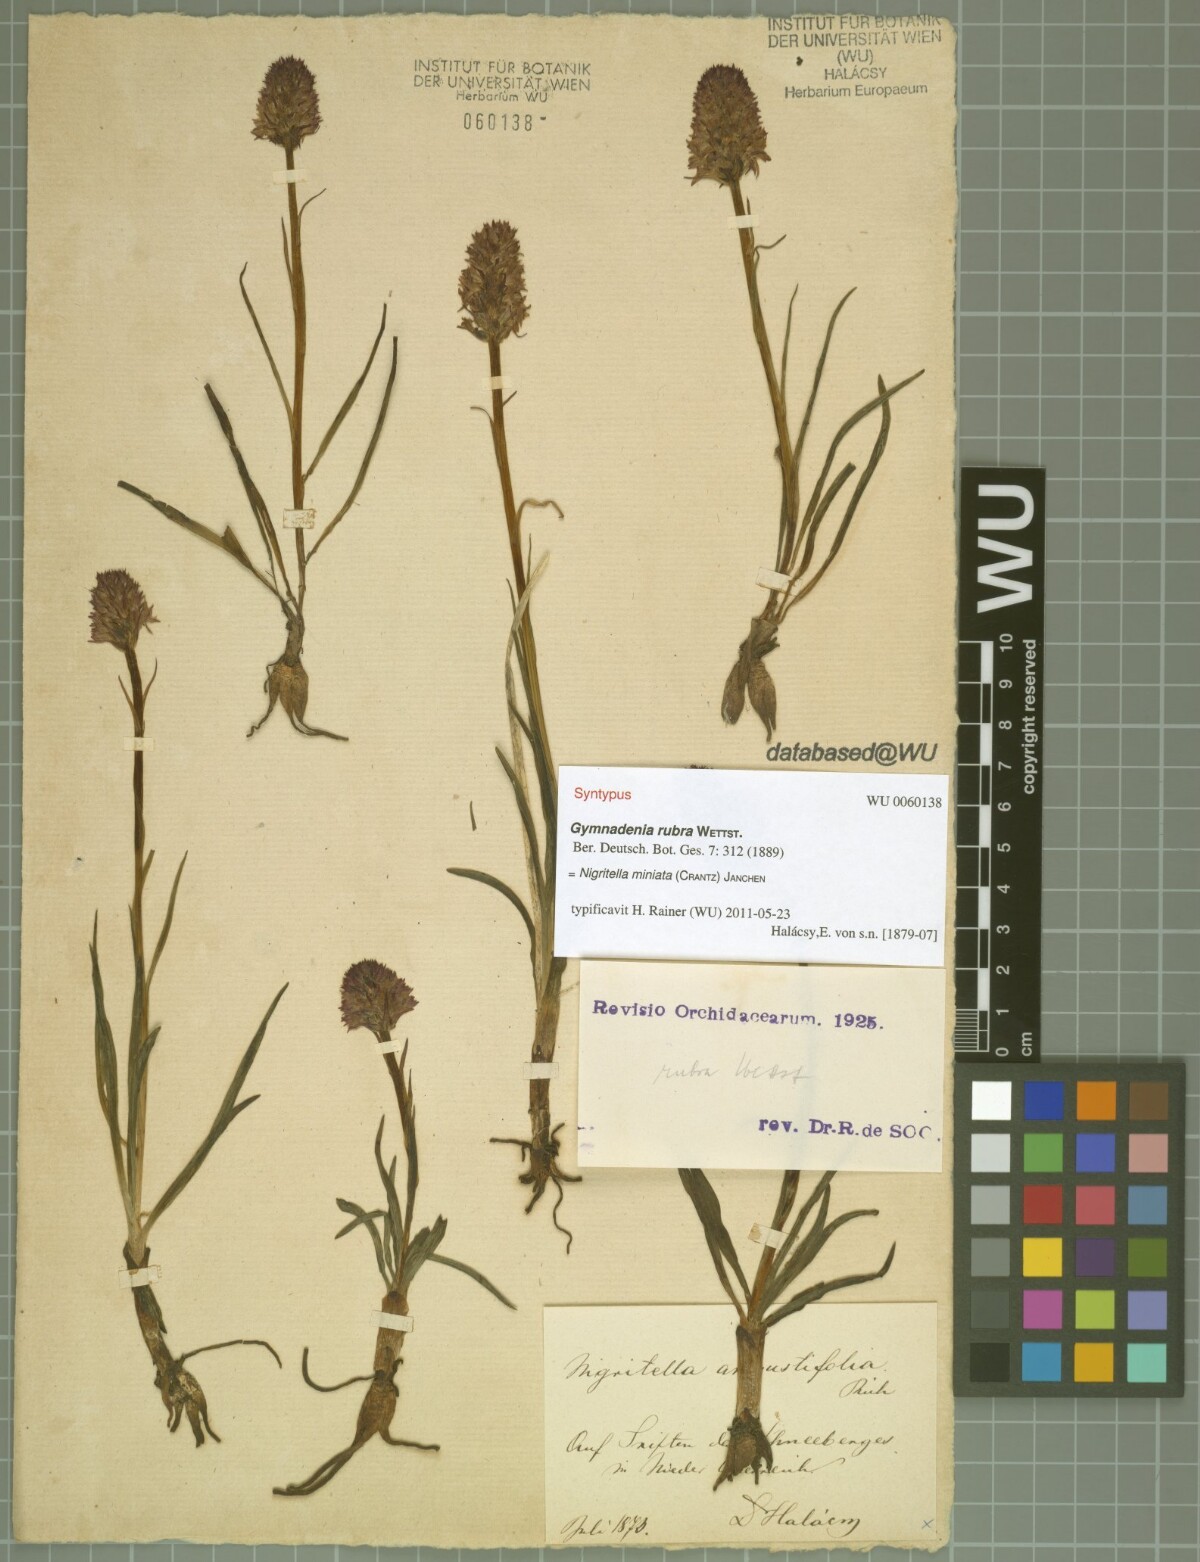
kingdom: Plantae
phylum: Tracheophyta
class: Liliopsida
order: Asparagales
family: Orchidaceae
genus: Gymnadenia
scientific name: Gymnadenia miniata
